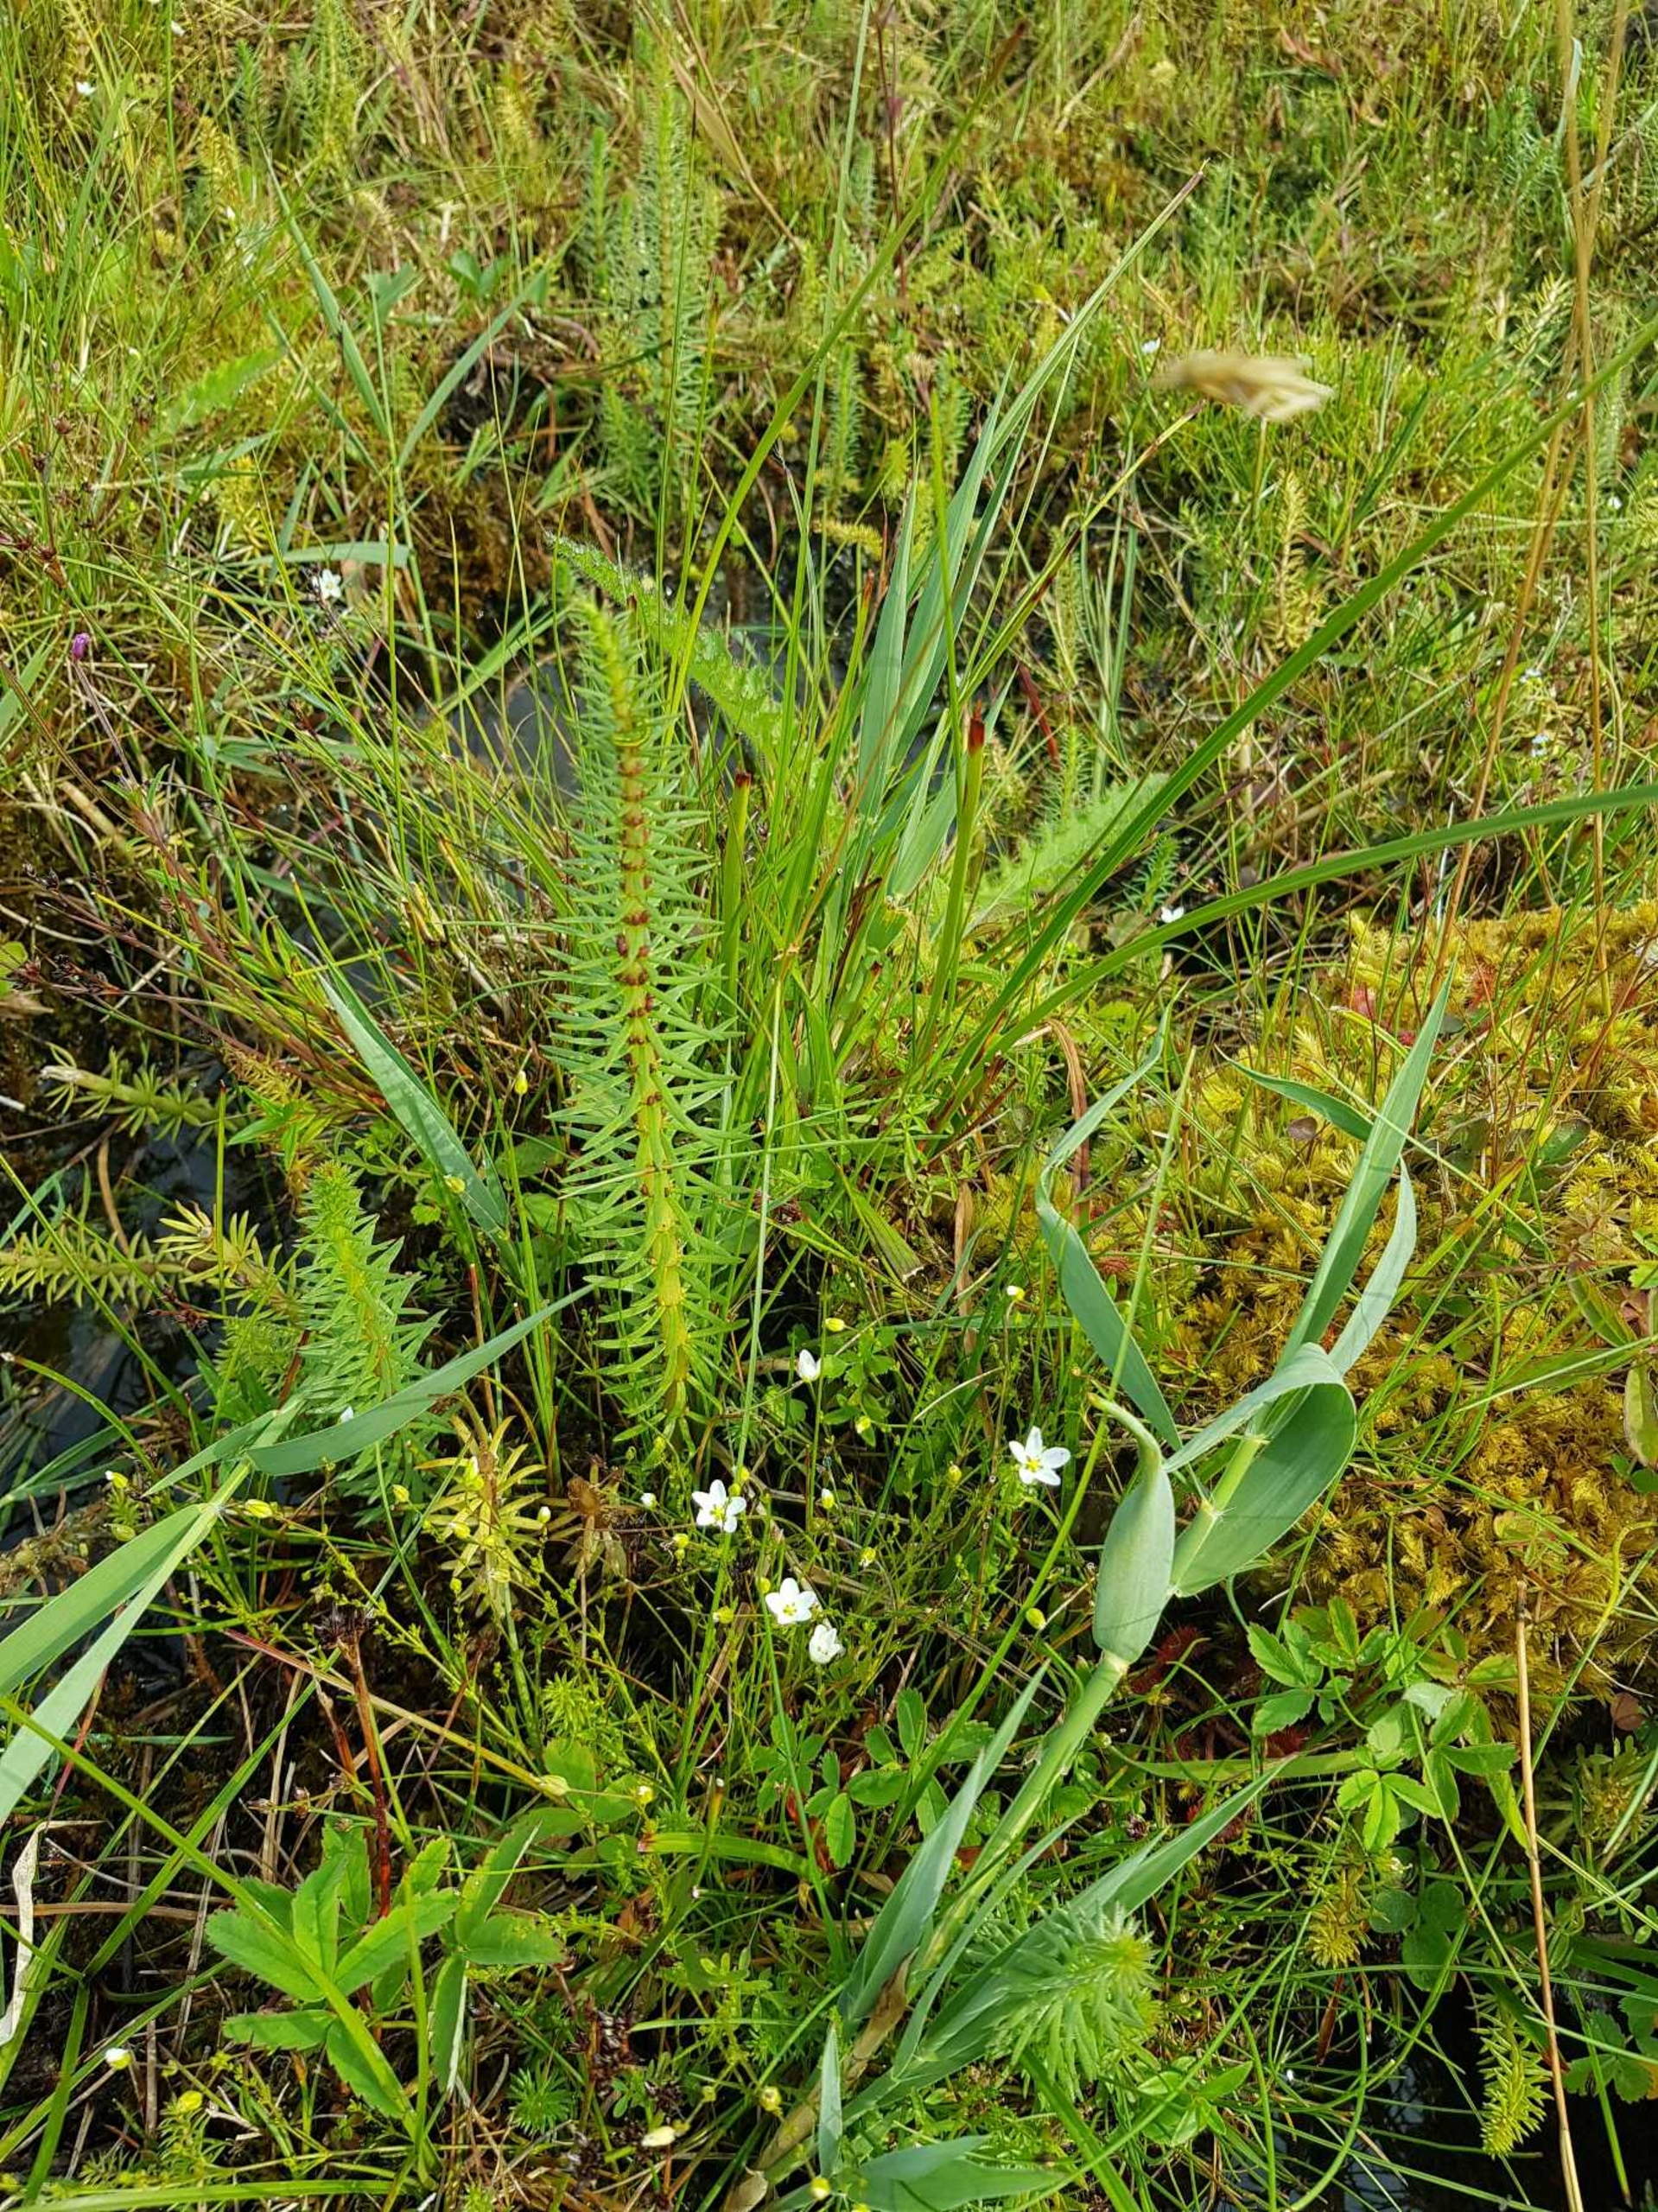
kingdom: Plantae
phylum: Tracheophyta
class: Magnoliopsida
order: Lamiales
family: Plantaginaceae
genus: Hippuris
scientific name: Hippuris vulgaris
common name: Vandspir
